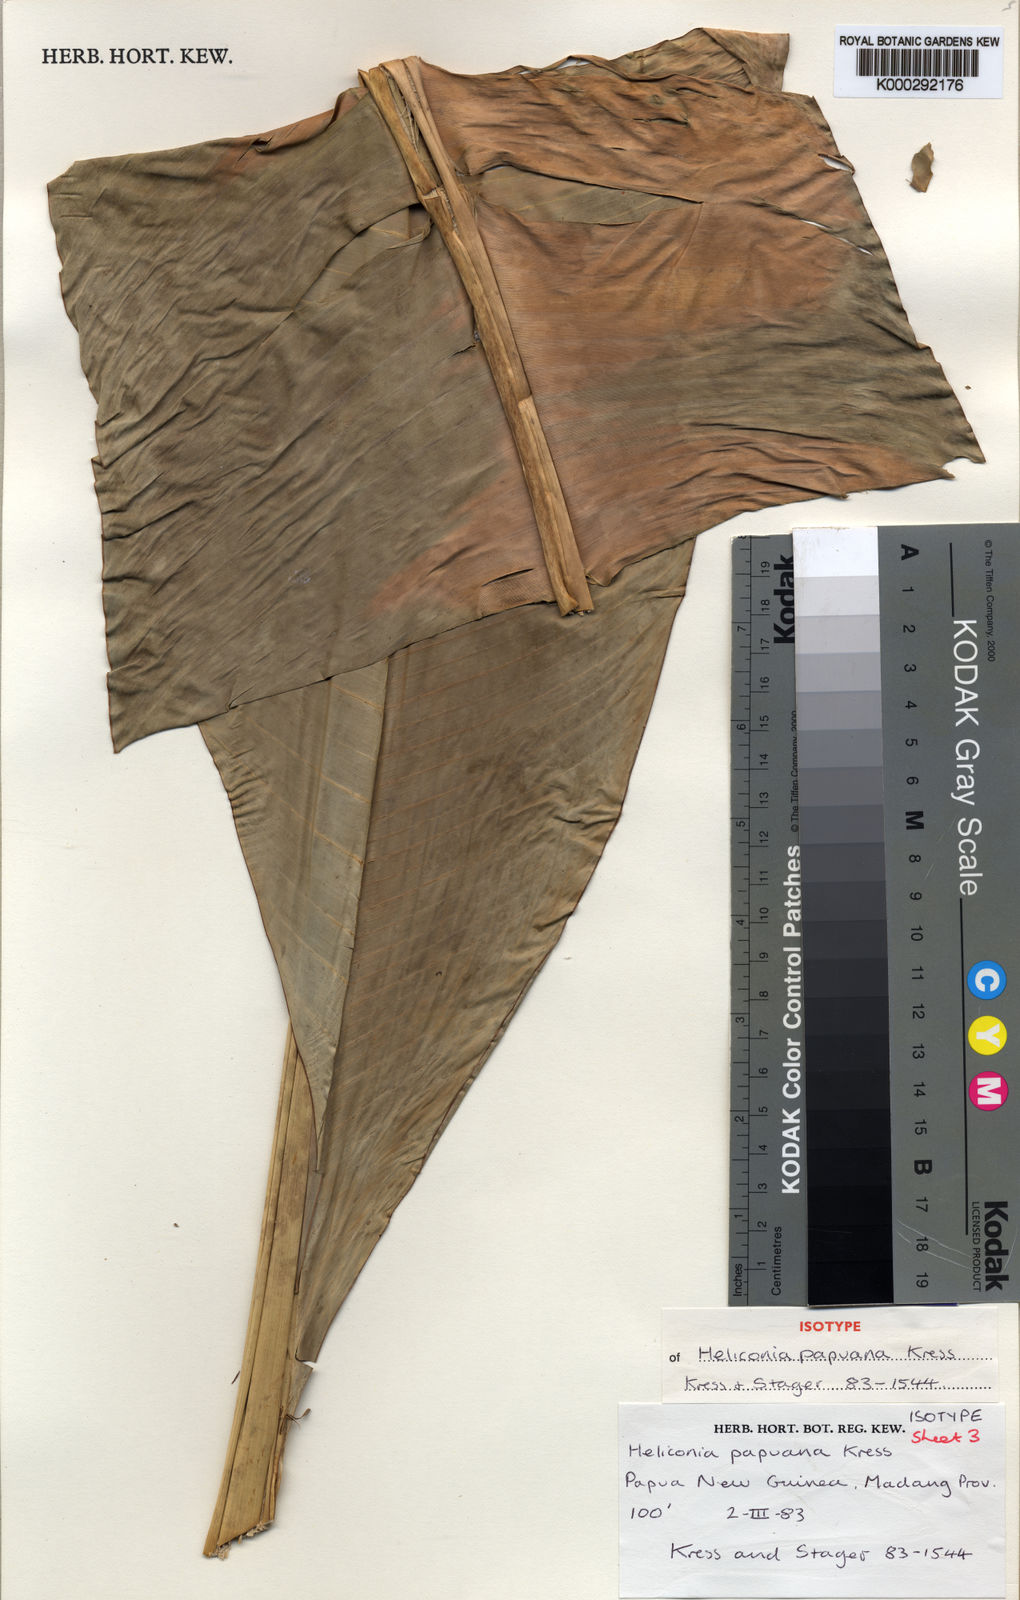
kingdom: Plantae
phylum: Tracheophyta
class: Liliopsida
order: Zingiberales
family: Heliconiaceae
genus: Heliconia
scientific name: Heliconia papuana
